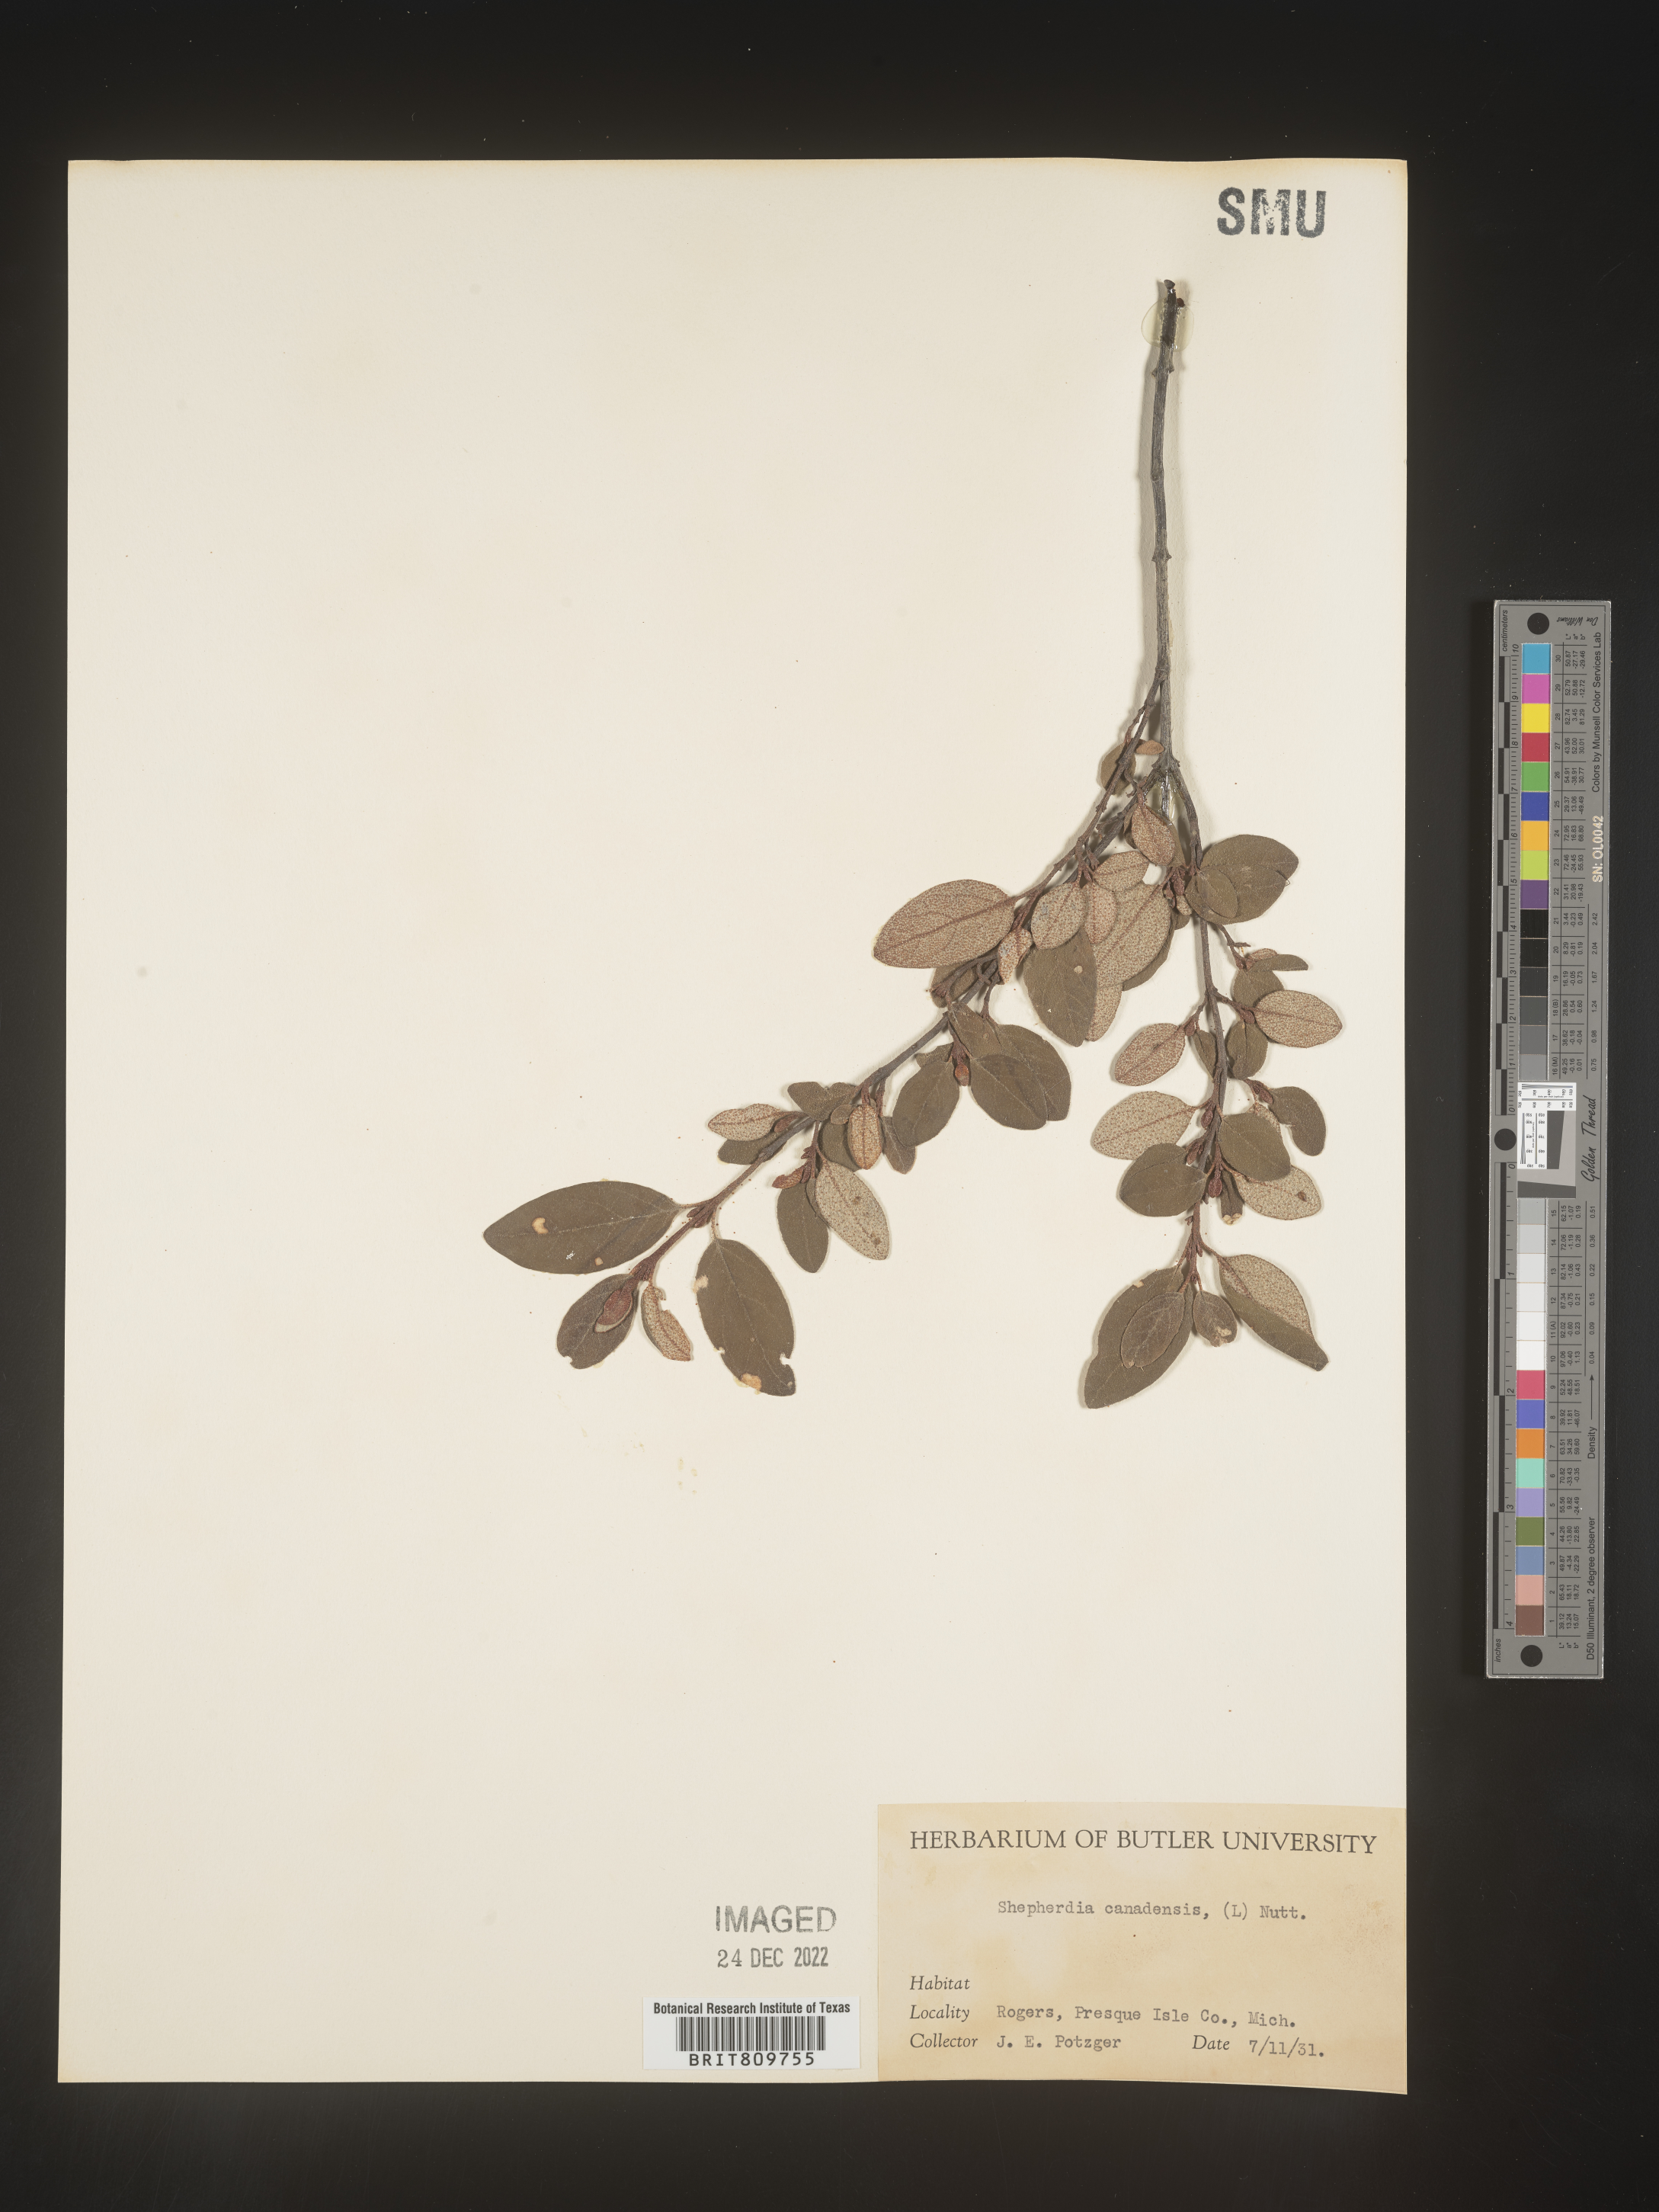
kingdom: Plantae
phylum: Tracheophyta
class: Magnoliopsida
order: Rosales
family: Elaeagnaceae
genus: Shepherdia
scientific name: Shepherdia canadensis
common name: Soapberry
